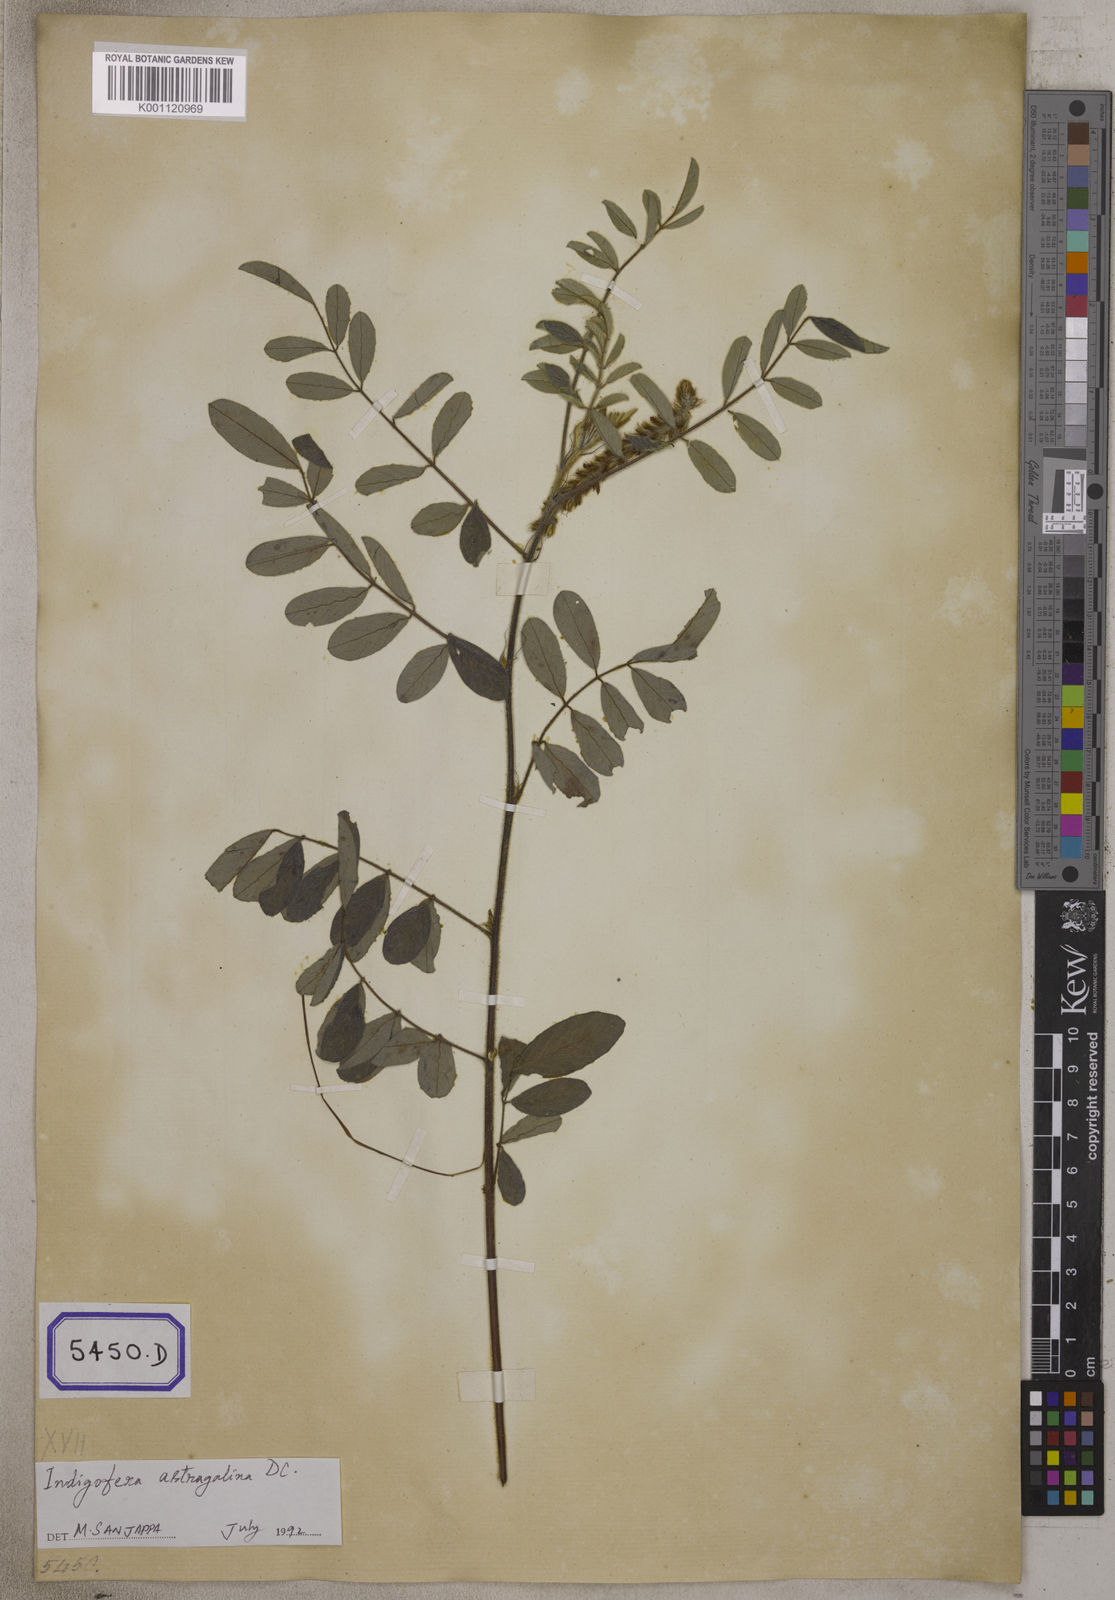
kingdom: Plantae
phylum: Tracheophyta
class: Magnoliopsida
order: Fabales
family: Fabaceae
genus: Indigofera
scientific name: Indigofera hirsuta
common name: Hairy indigo
